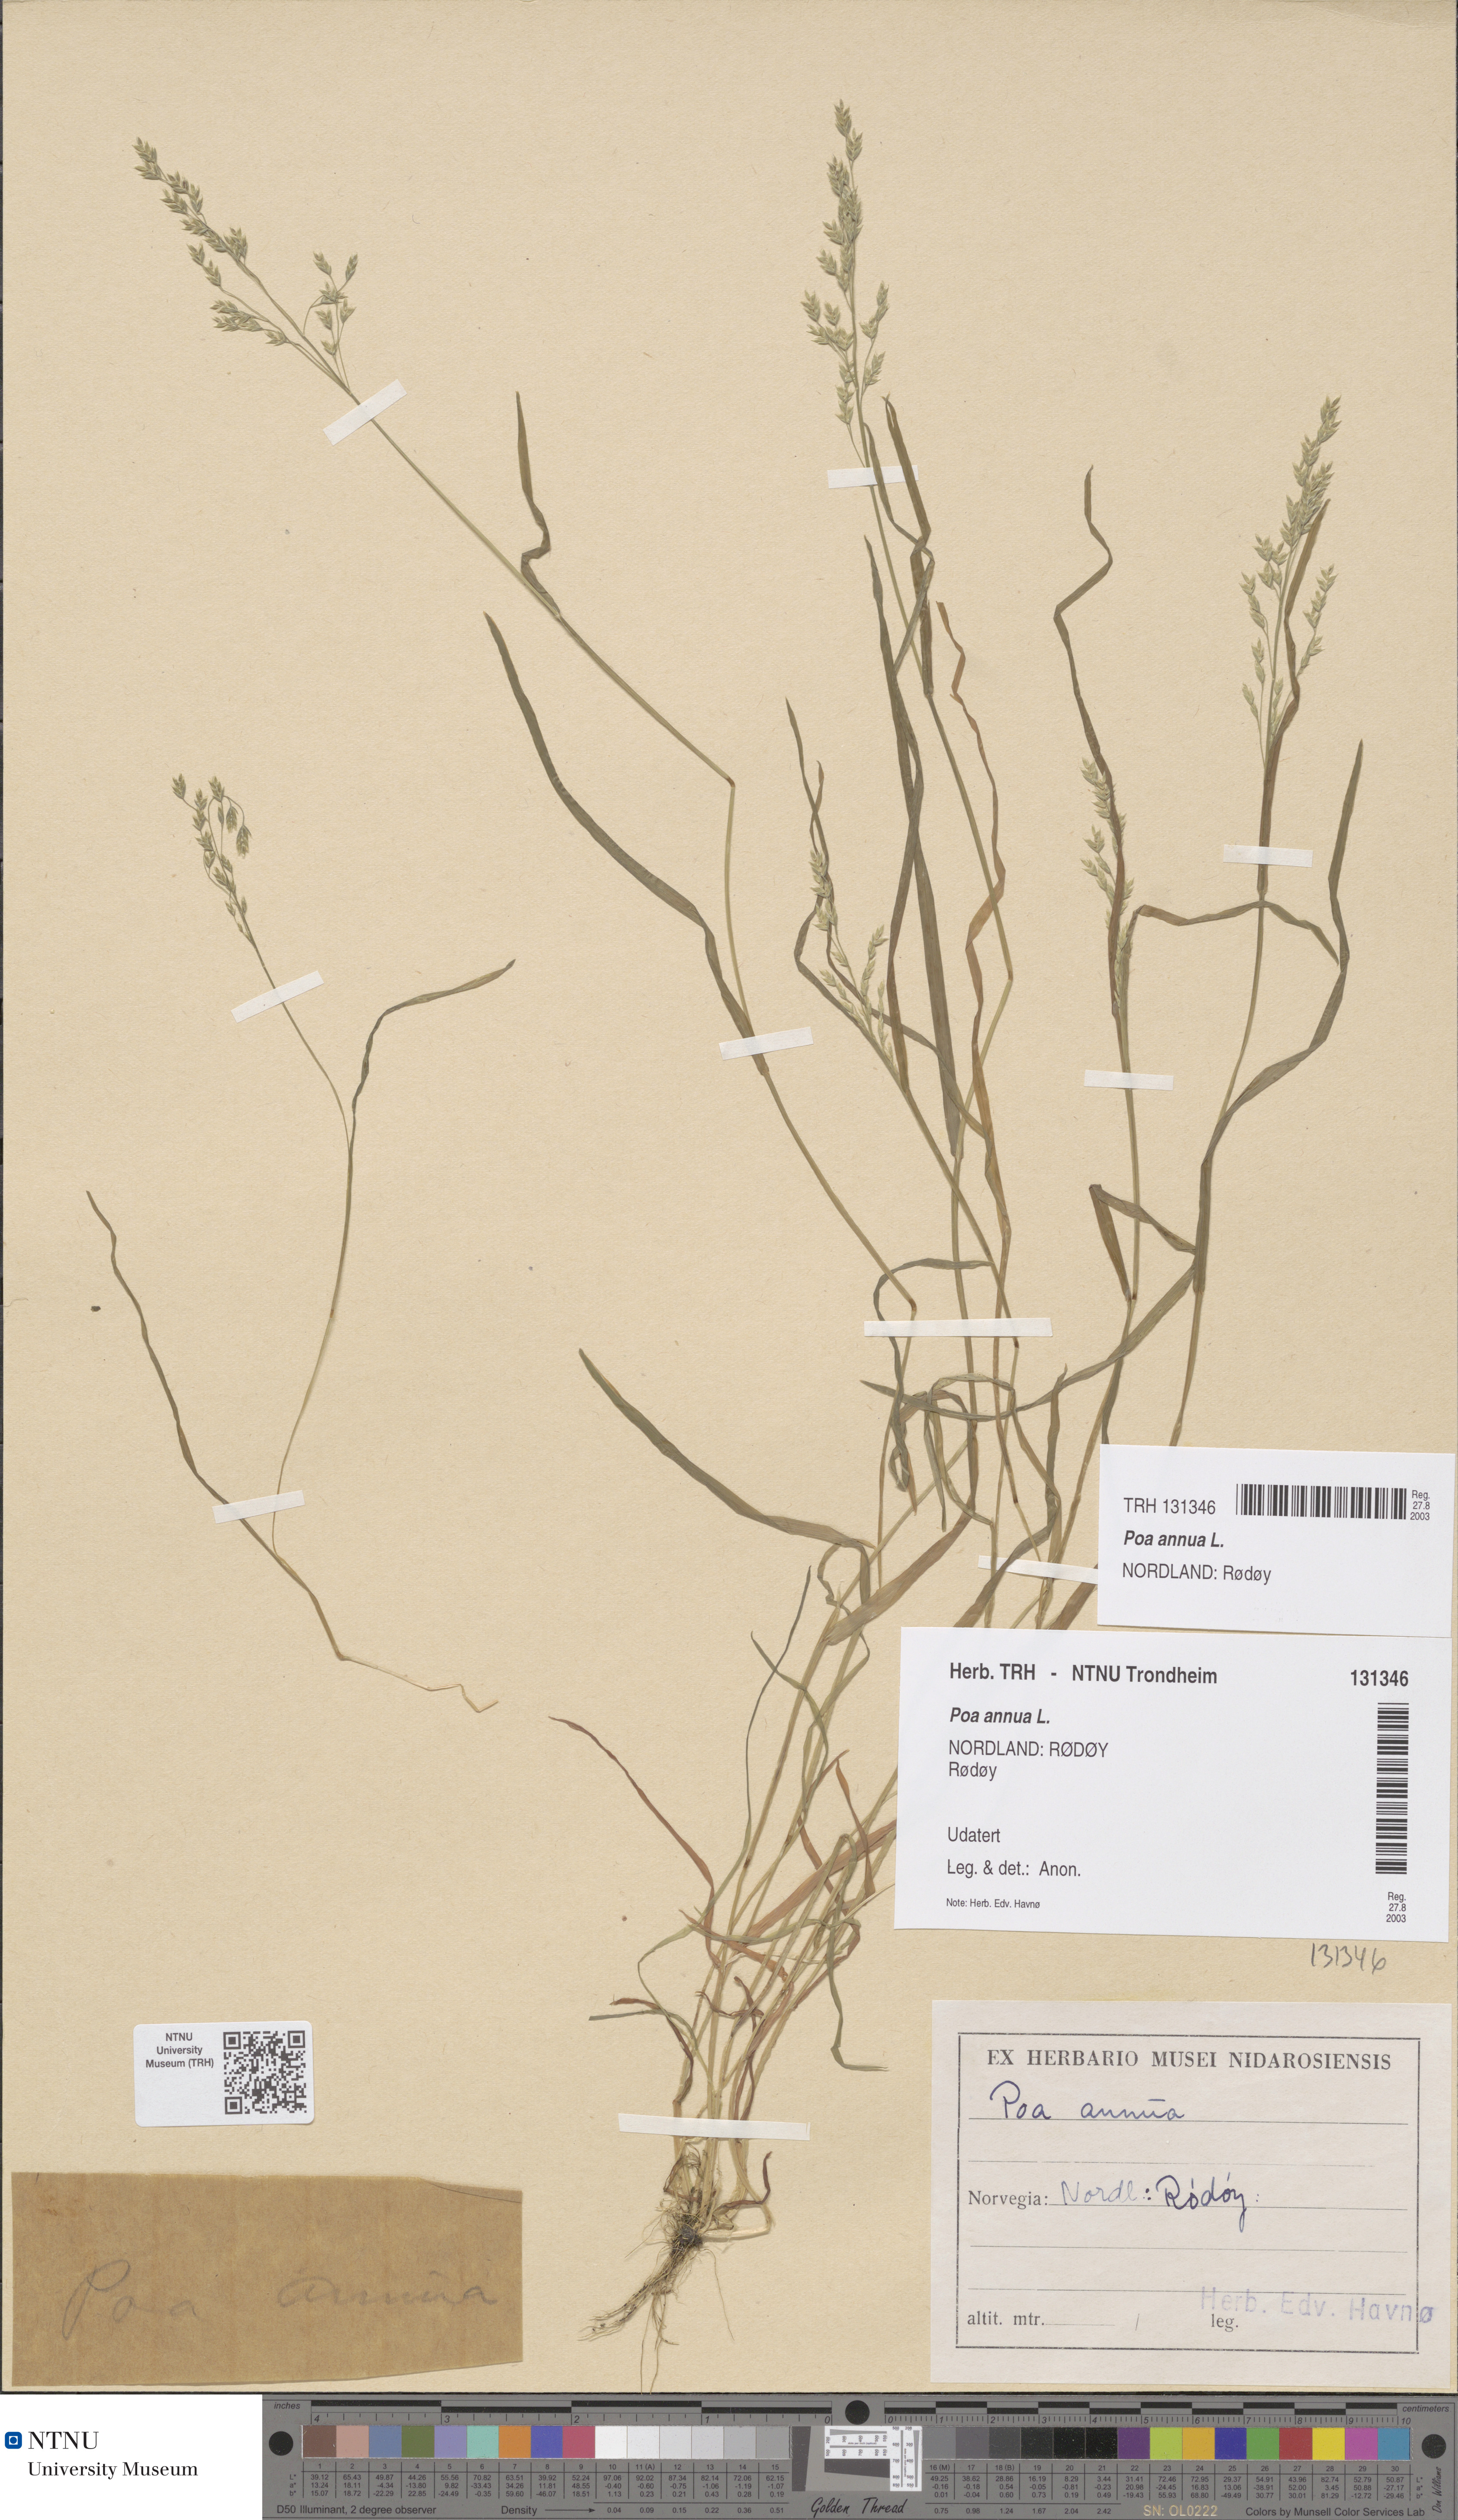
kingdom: Plantae
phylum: Tracheophyta
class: Liliopsida
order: Poales
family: Poaceae
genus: Poa
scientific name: Poa annua
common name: Annual bluegrass
